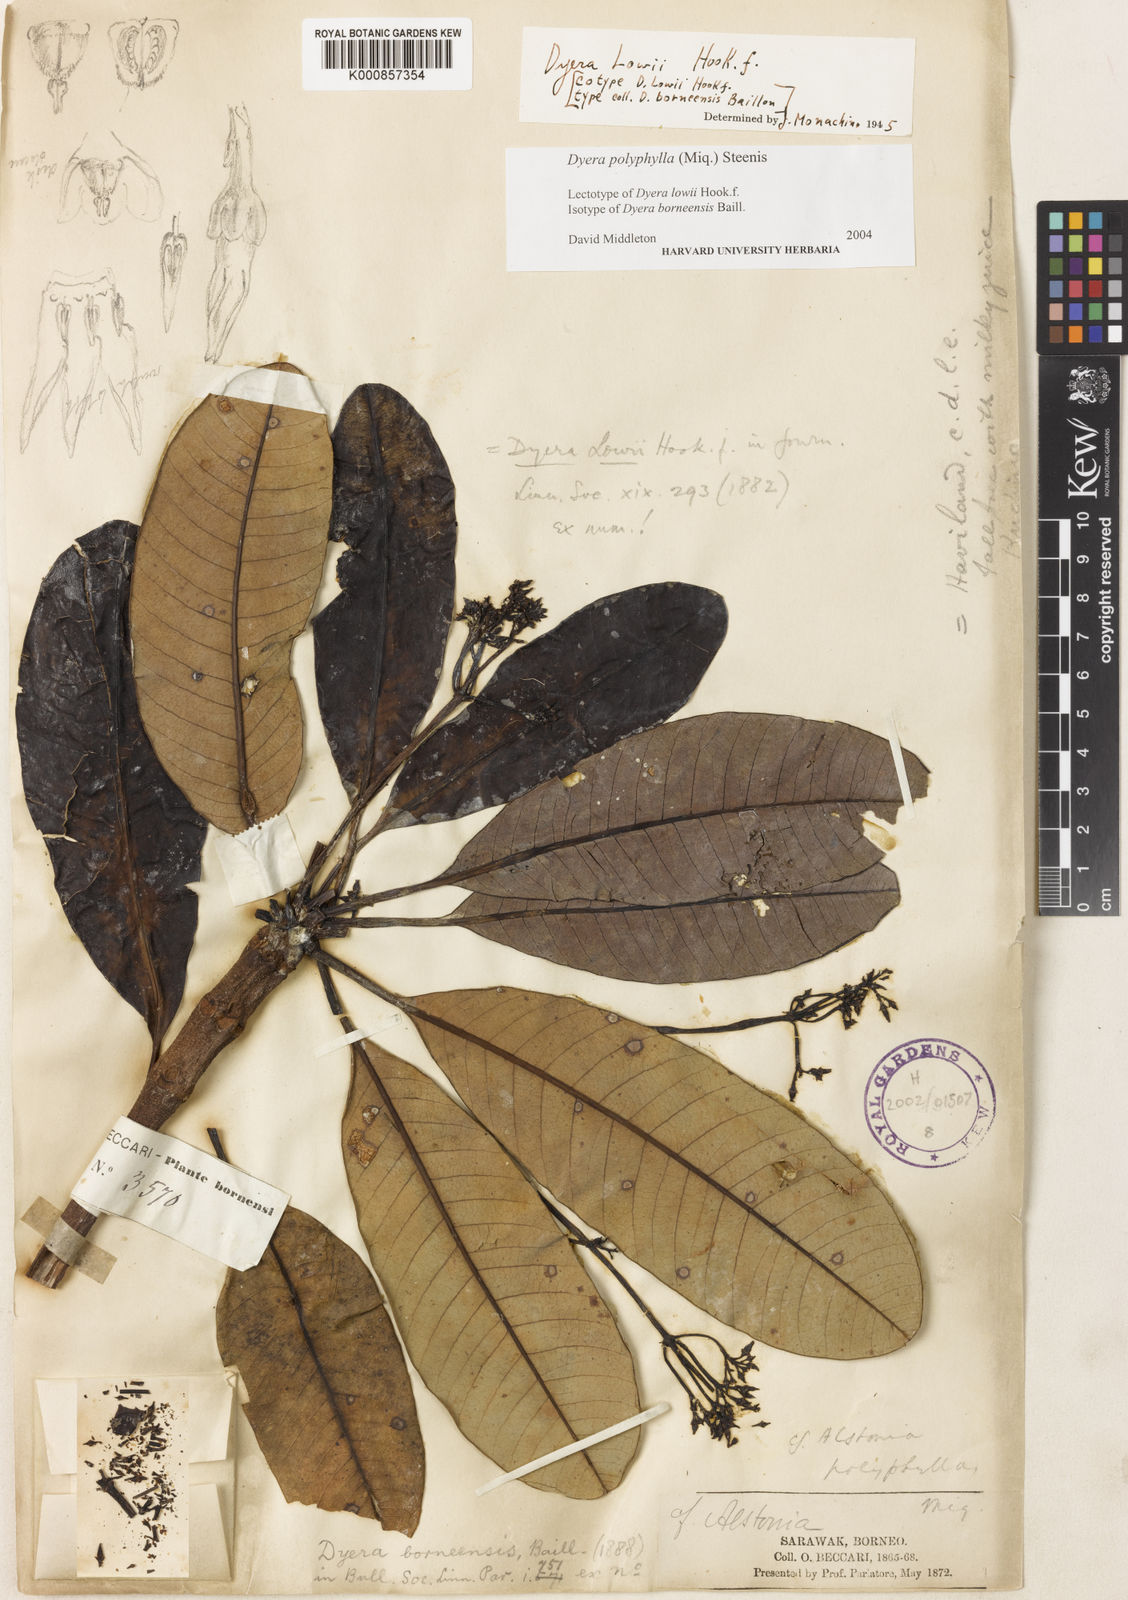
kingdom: Plantae
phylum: Tracheophyta
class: Magnoliopsida
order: Gentianales
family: Apocynaceae
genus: Dyera
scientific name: Dyera polyphylla
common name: Swamp jelutong
